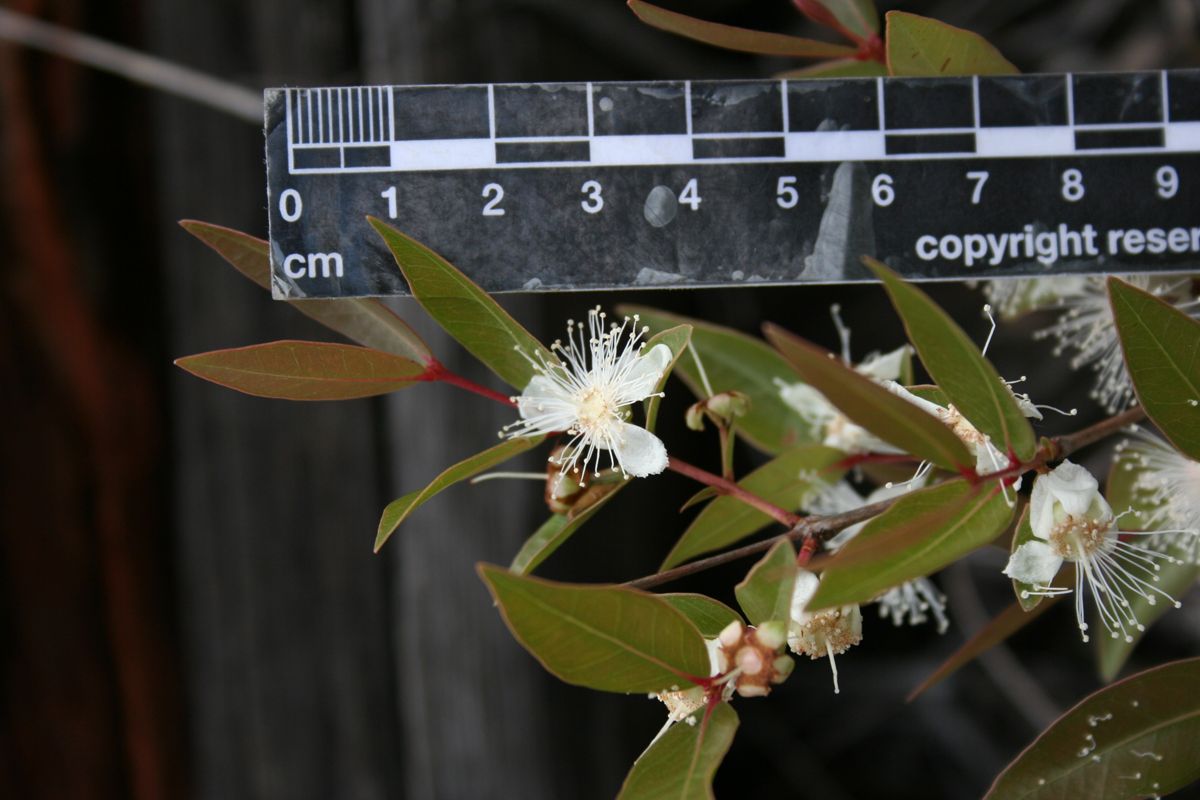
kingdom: Plantae
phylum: Tracheophyta
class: Magnoliopsida
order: Myrtales
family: Myrtaceae
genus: Psidium
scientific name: Psidium salutare
